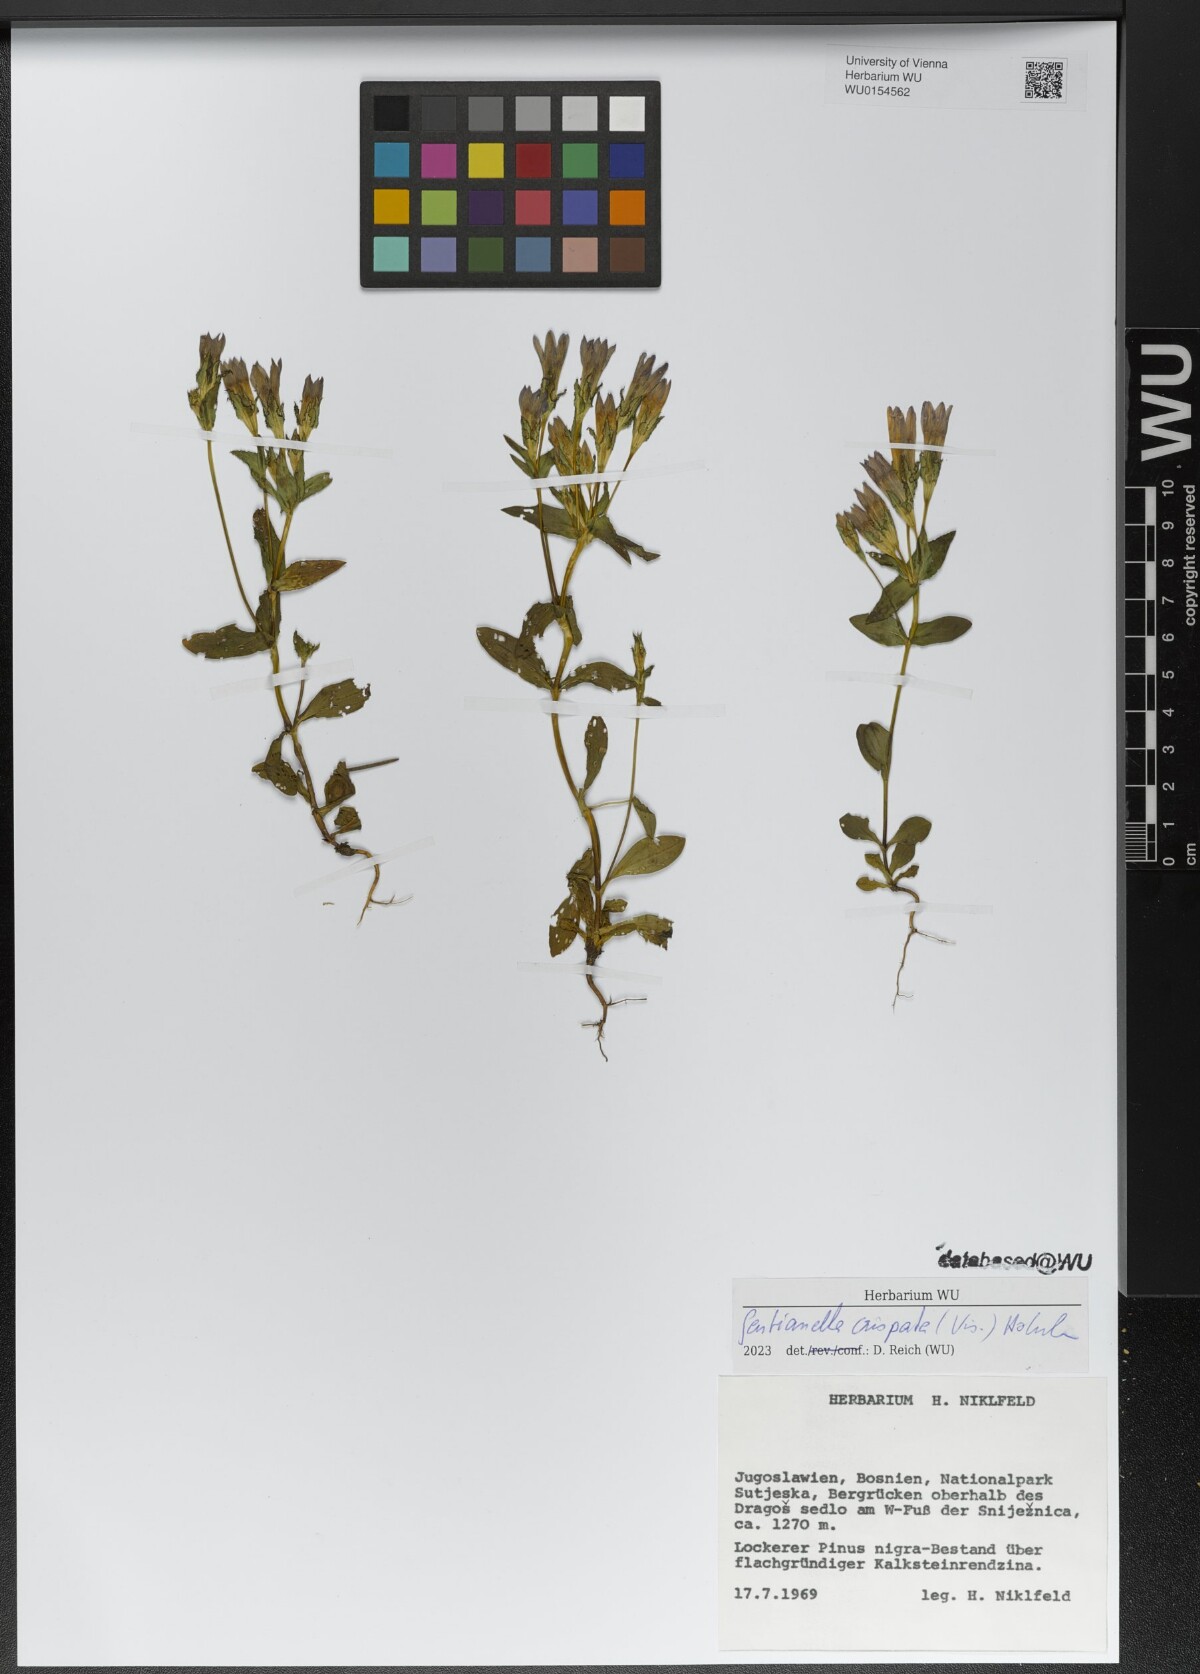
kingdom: Plantae
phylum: Tracheophyta
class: Magnoliopsida
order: Gentianales
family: Gentianaceae
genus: Gentianella
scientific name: Gentianella crispata
